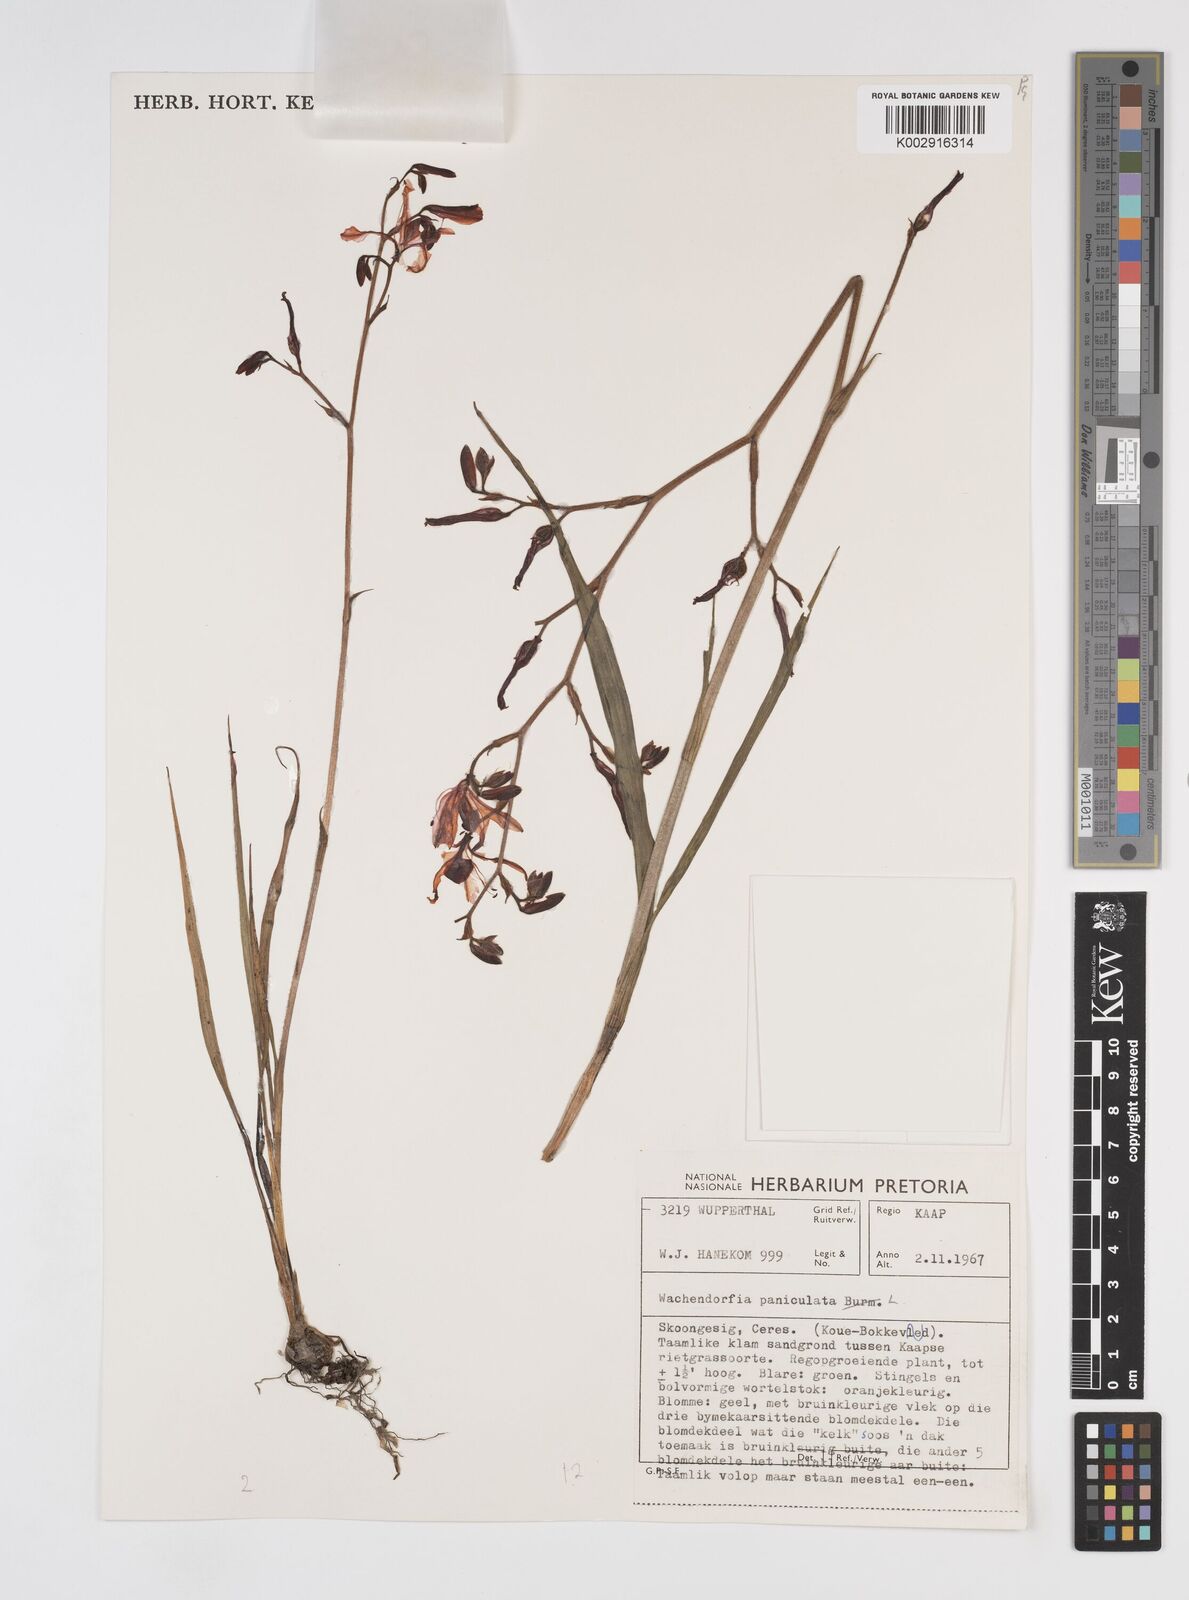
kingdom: Plantae
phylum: Tracheophyta
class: Liliopsida
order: Commelinales
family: Haemodoraceae
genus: Wachendorfia
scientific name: Wachendorfia paniculata
